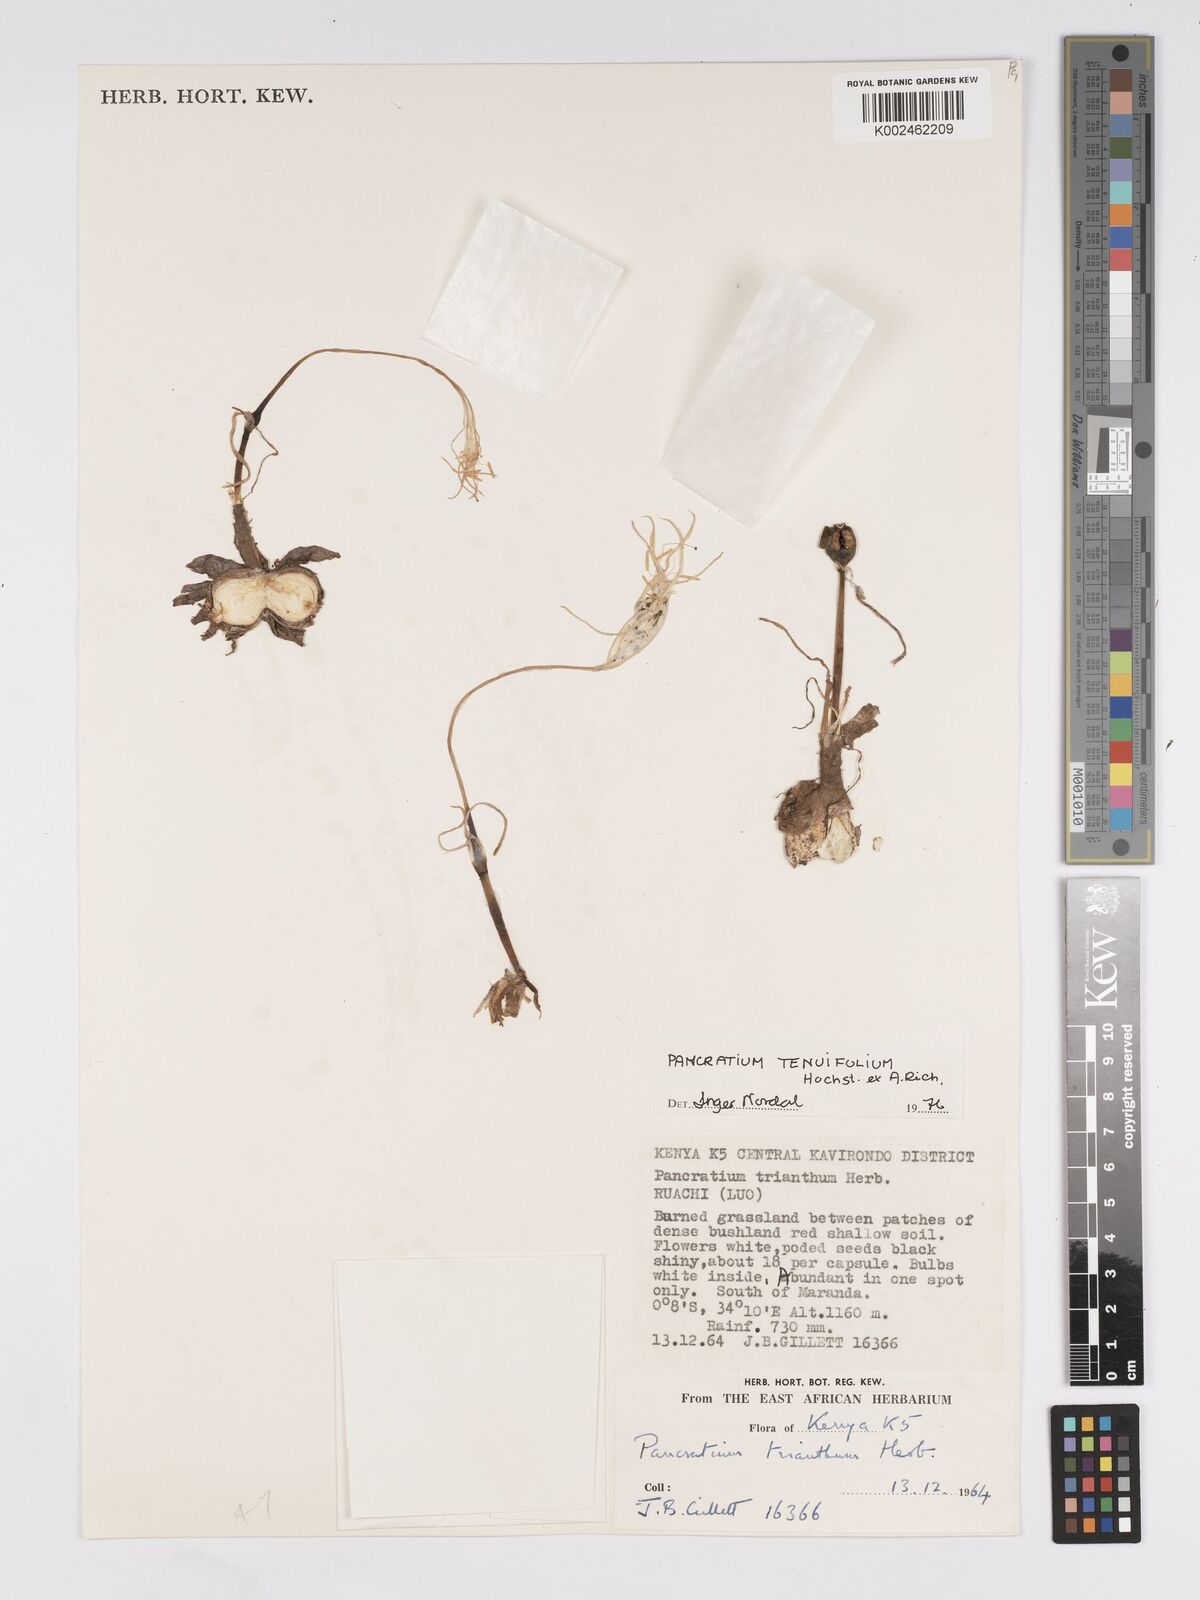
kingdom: Plantae
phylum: Tracheophyta
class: Liliopsida
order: Asparagales
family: Amaryllidaceae
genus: Pancratium
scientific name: Pancratium tenuifolium
